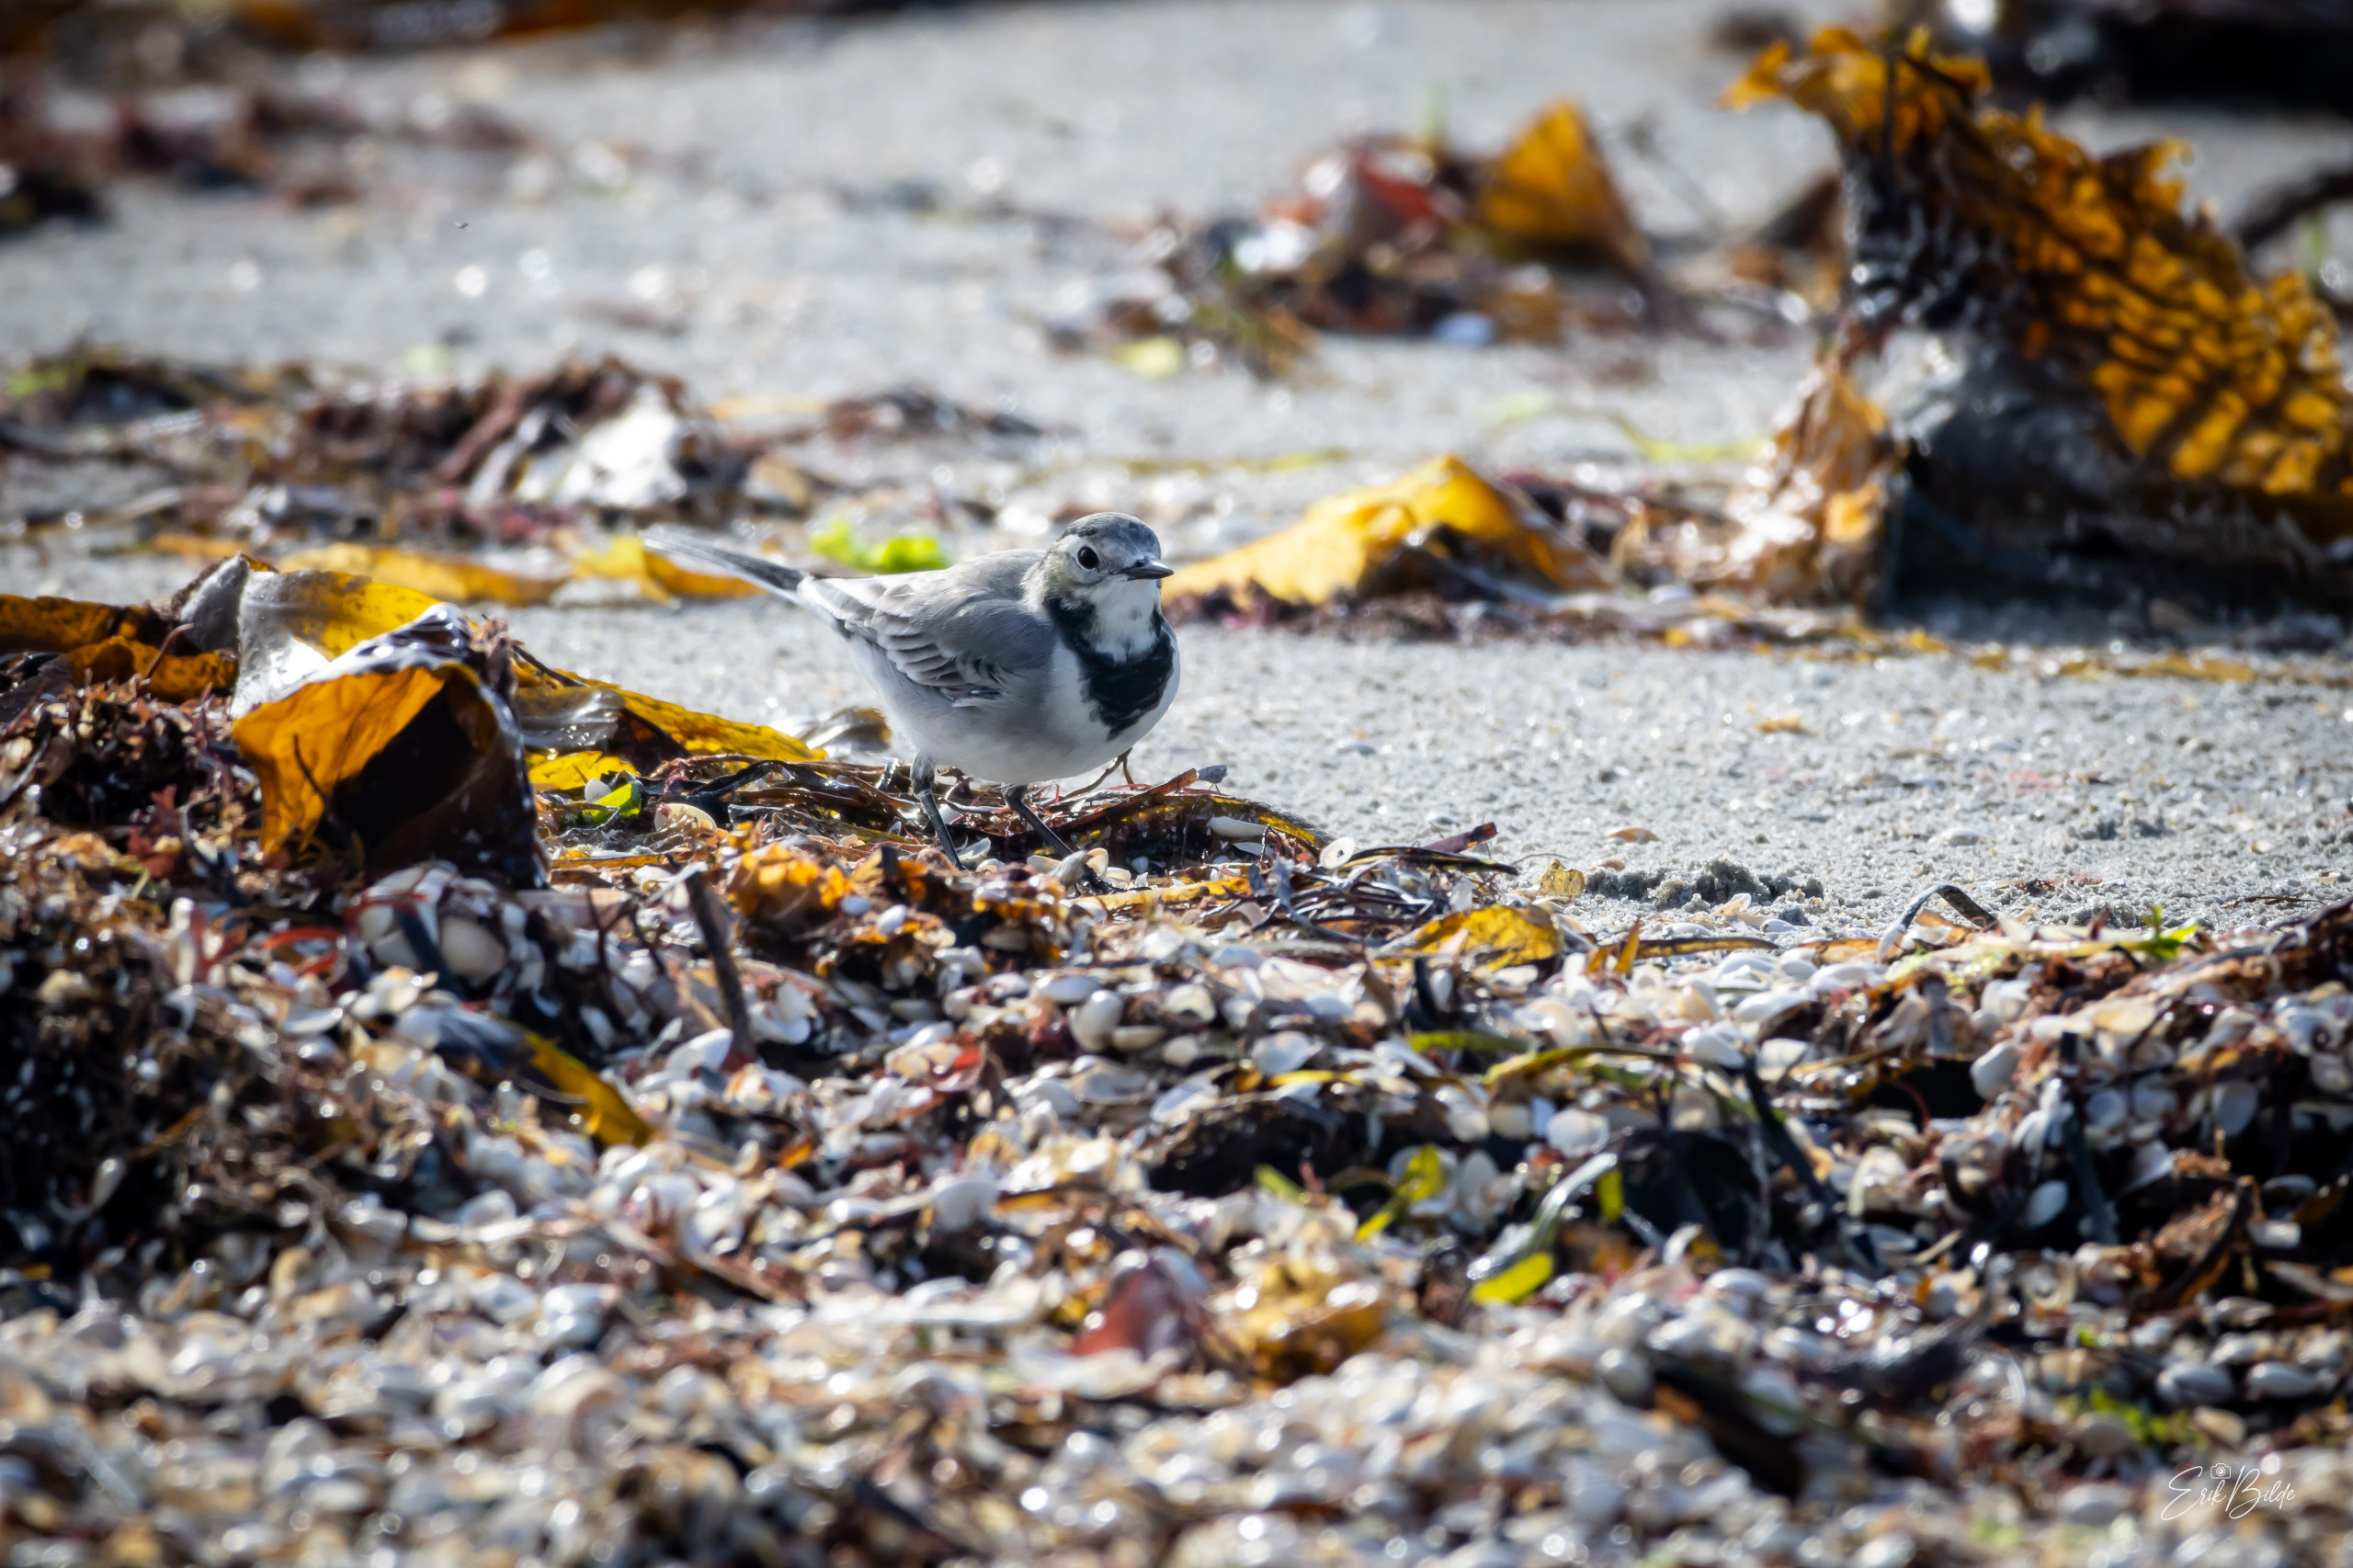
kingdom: Animalia
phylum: Chordata
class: Aves
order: Passeriformes
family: Motacillidae
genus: Motacilla
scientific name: Motacilla alba
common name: Hvid vipstjert
